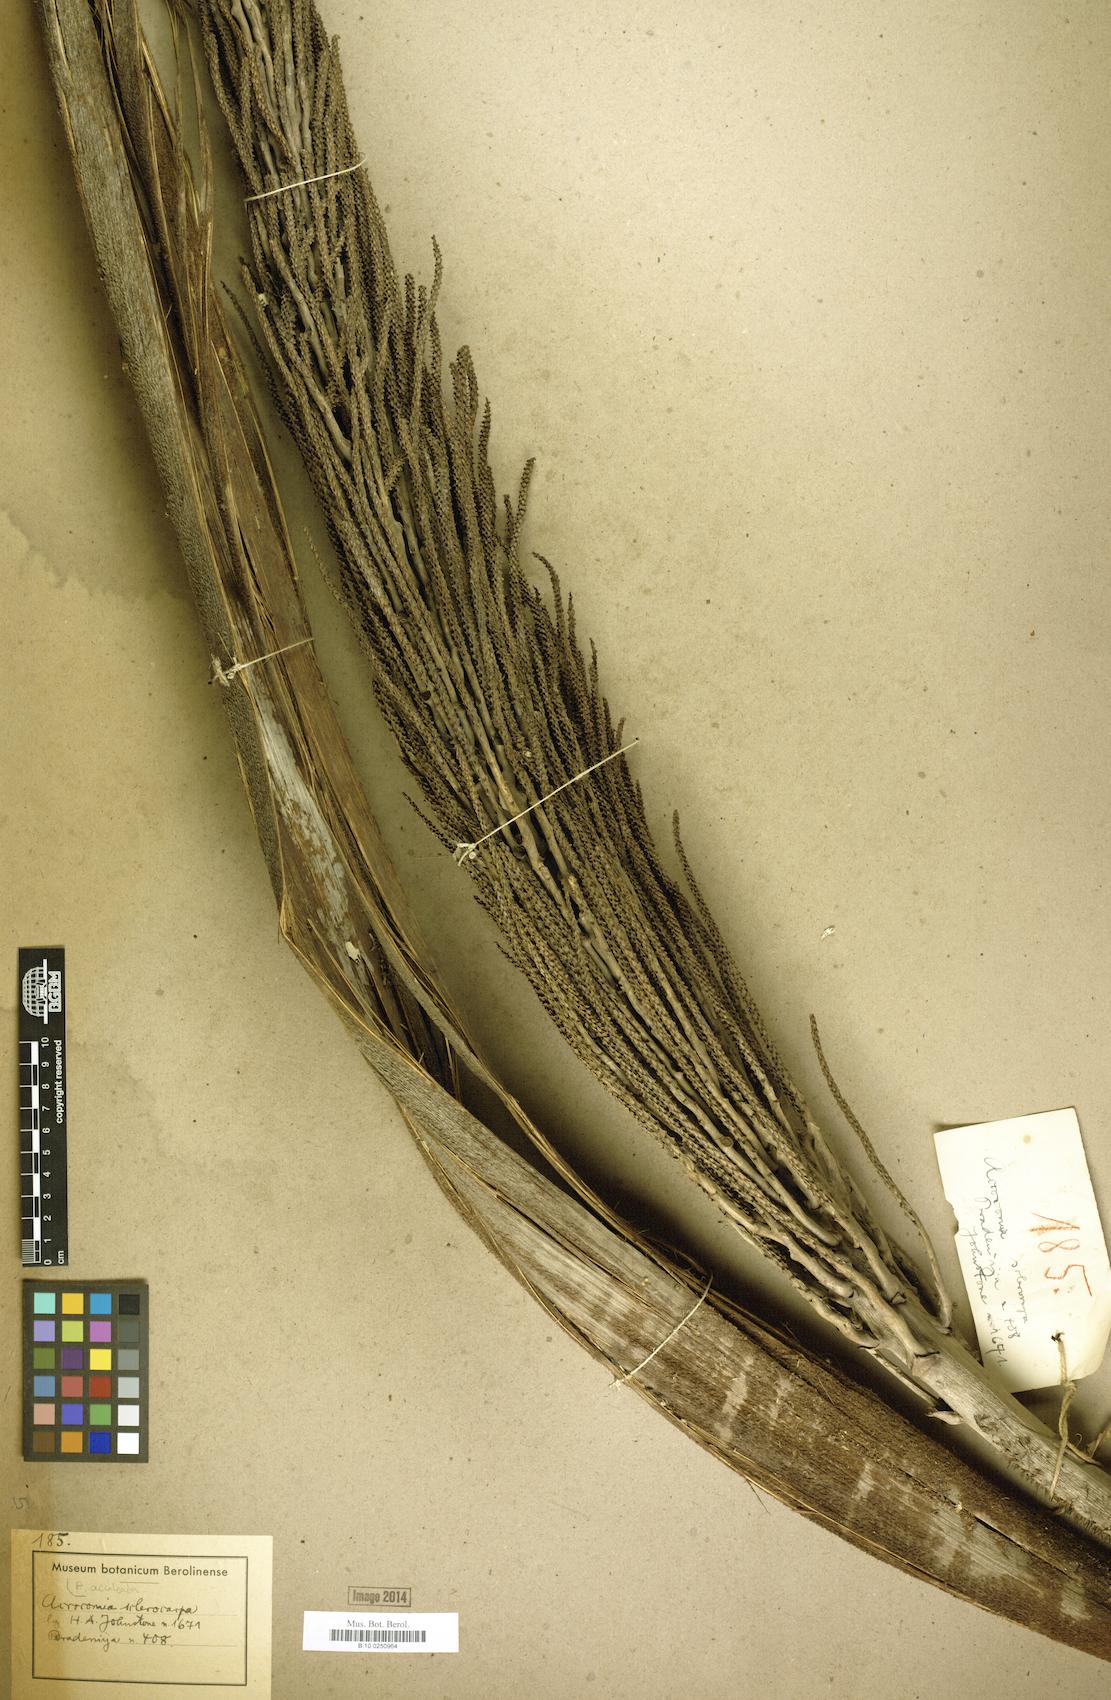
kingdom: Plantae
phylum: Tracheophyta
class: Liliopsida
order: Arecales
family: Arecaceae
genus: Acrocomia
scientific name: Acrocomia aculeata
